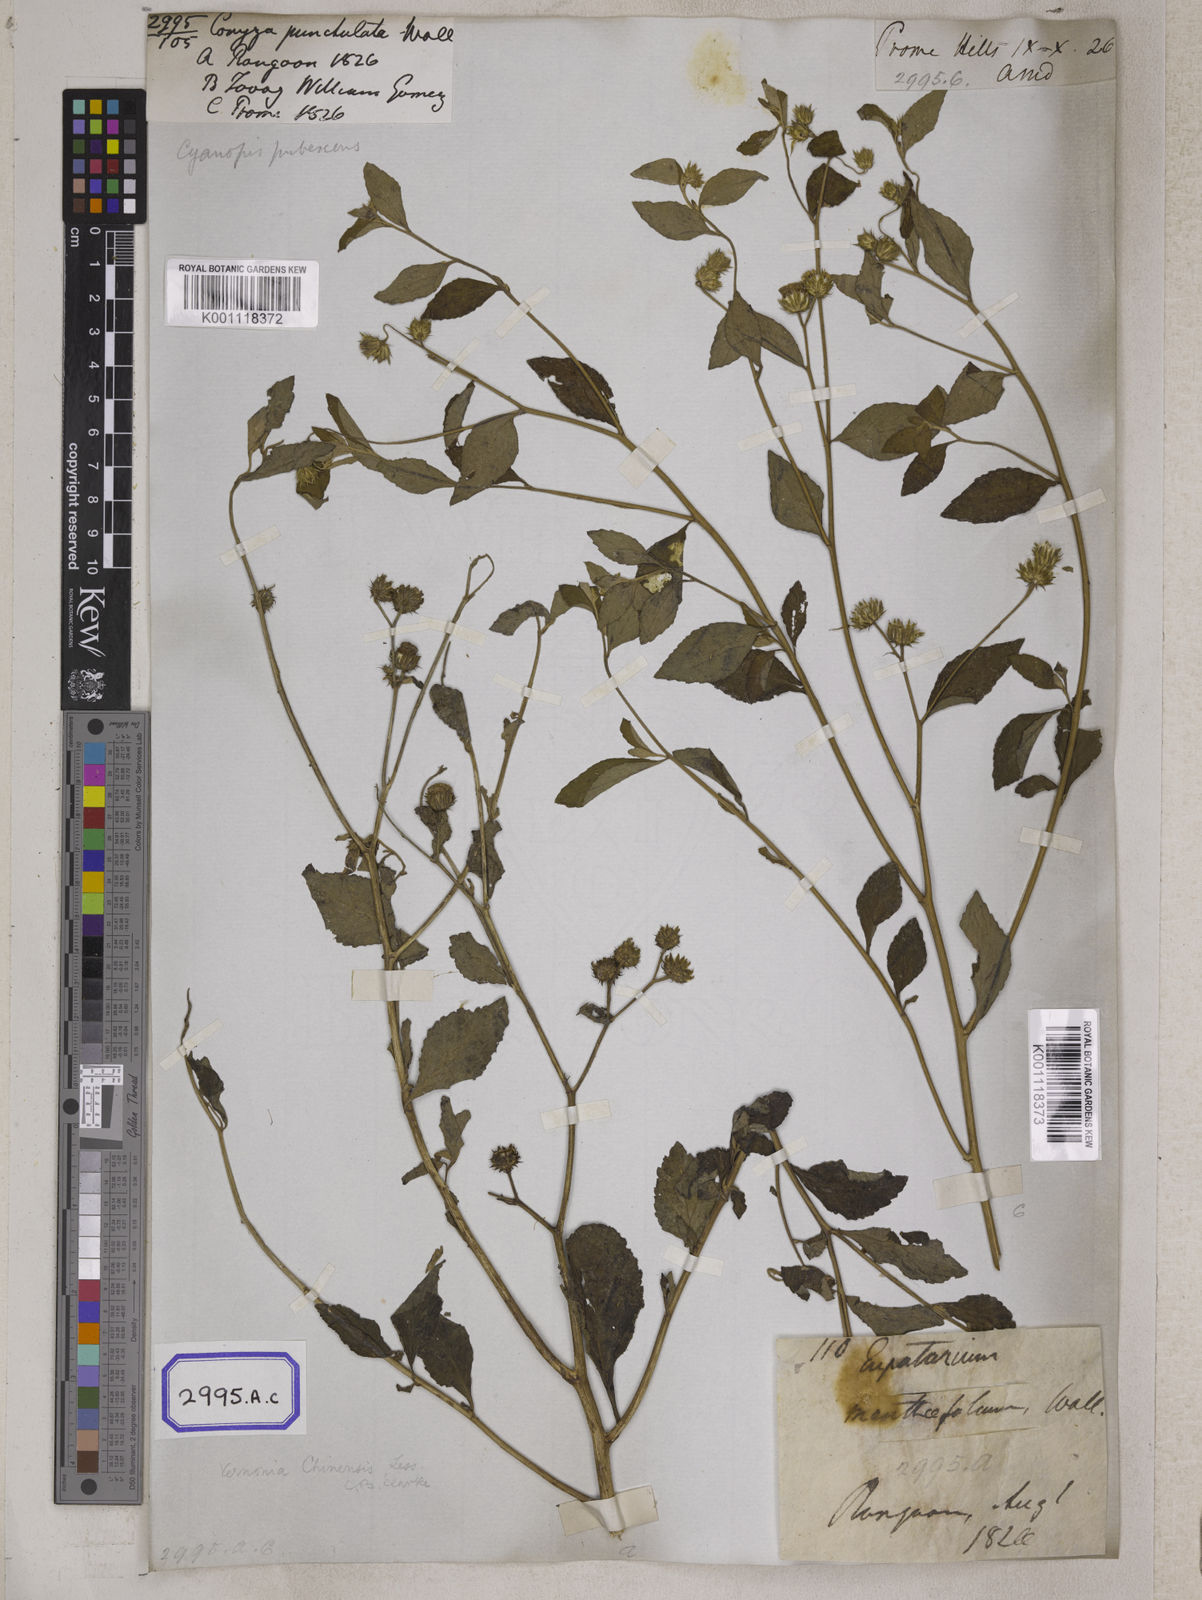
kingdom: Plantae
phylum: Tracheophyta
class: Magnoliopsida
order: Asterales
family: Asteraceae
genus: Cyanthillium
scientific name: Cyanthillium patulum
